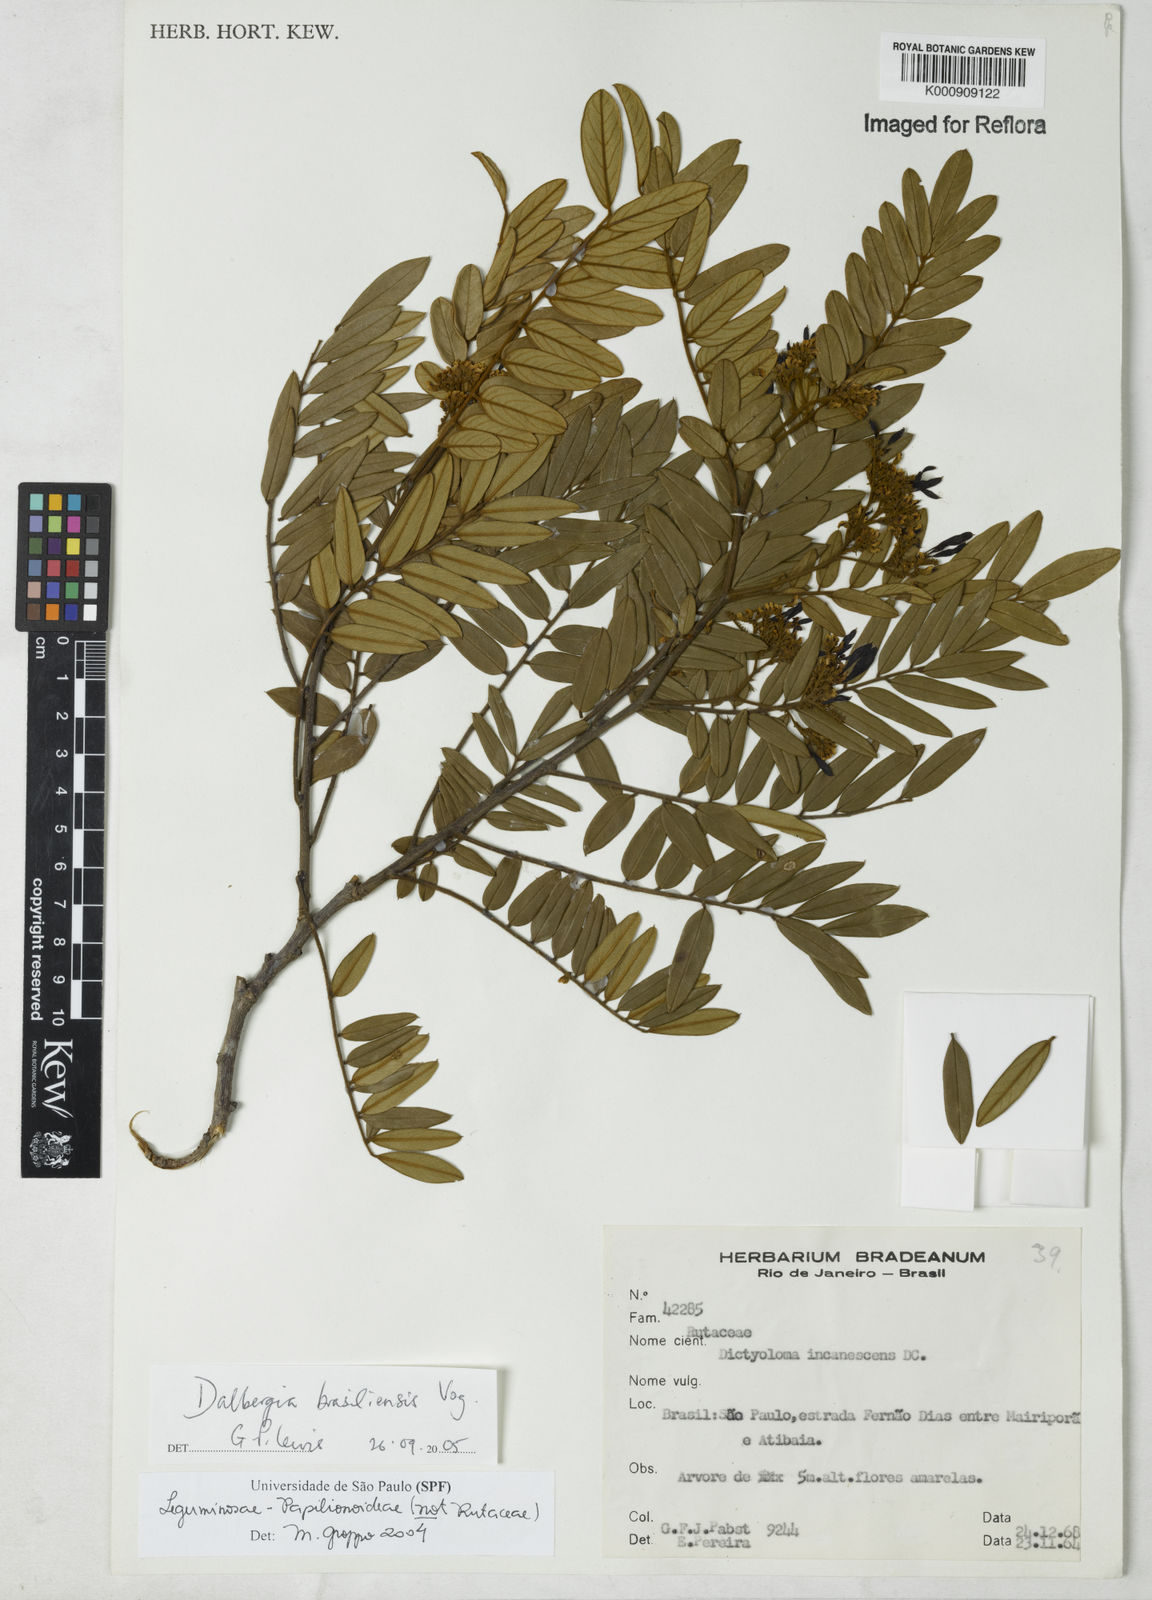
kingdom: Plantae
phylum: Tracheophyta
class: Magnoliopsida
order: Fabales
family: Fabaceae
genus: Dalbergia
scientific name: Dalbergia brasiliensis
